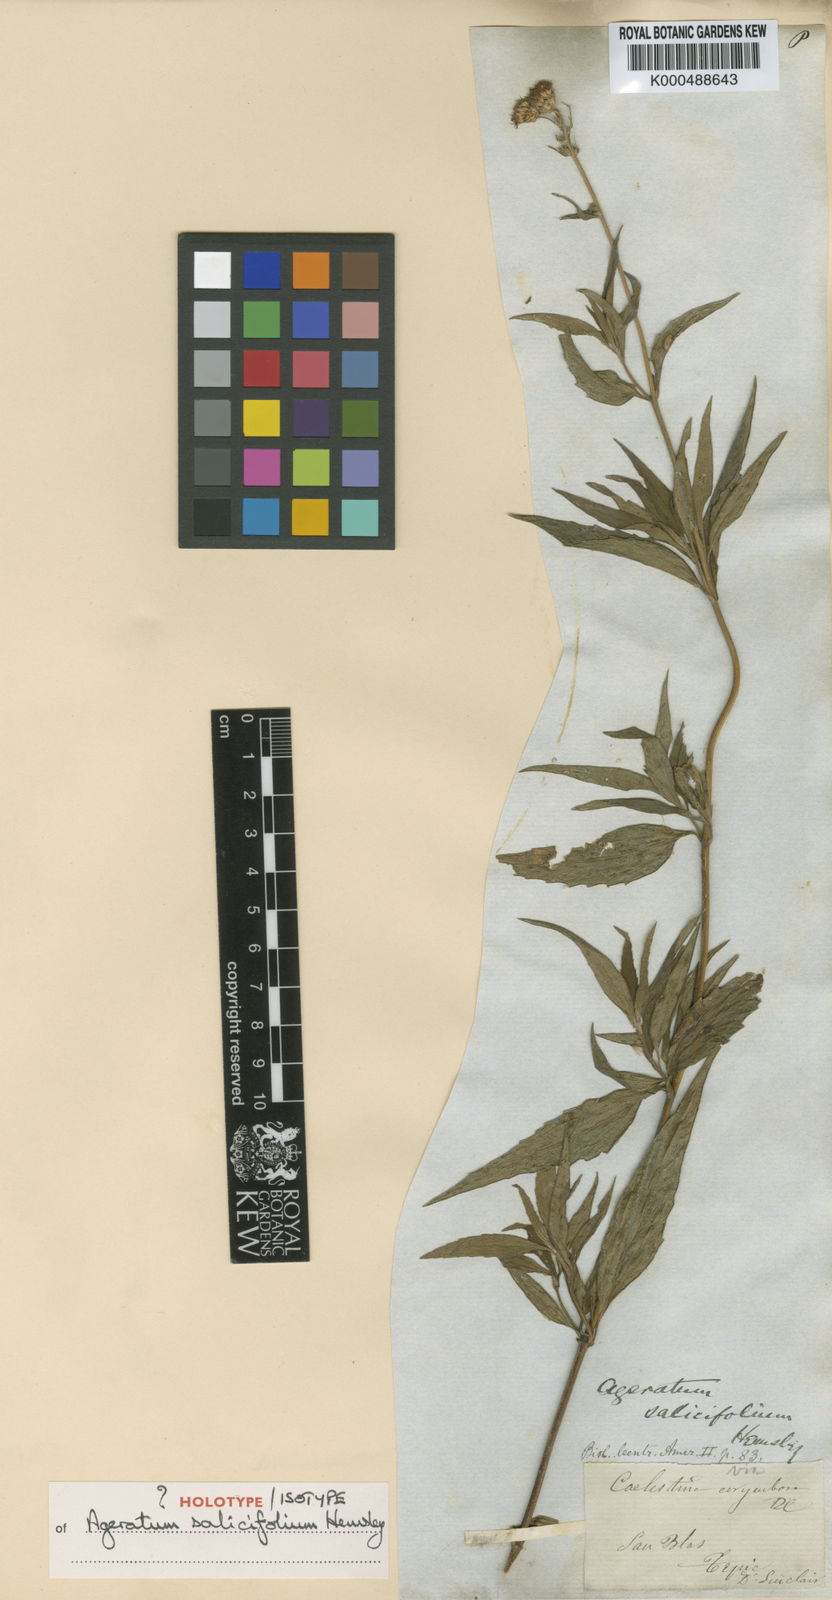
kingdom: Plantae
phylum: Tracheophyta
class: Magnoliopsida
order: Asterales
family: Asteraceae
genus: Ageratum
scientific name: Ageratum corymbosum
